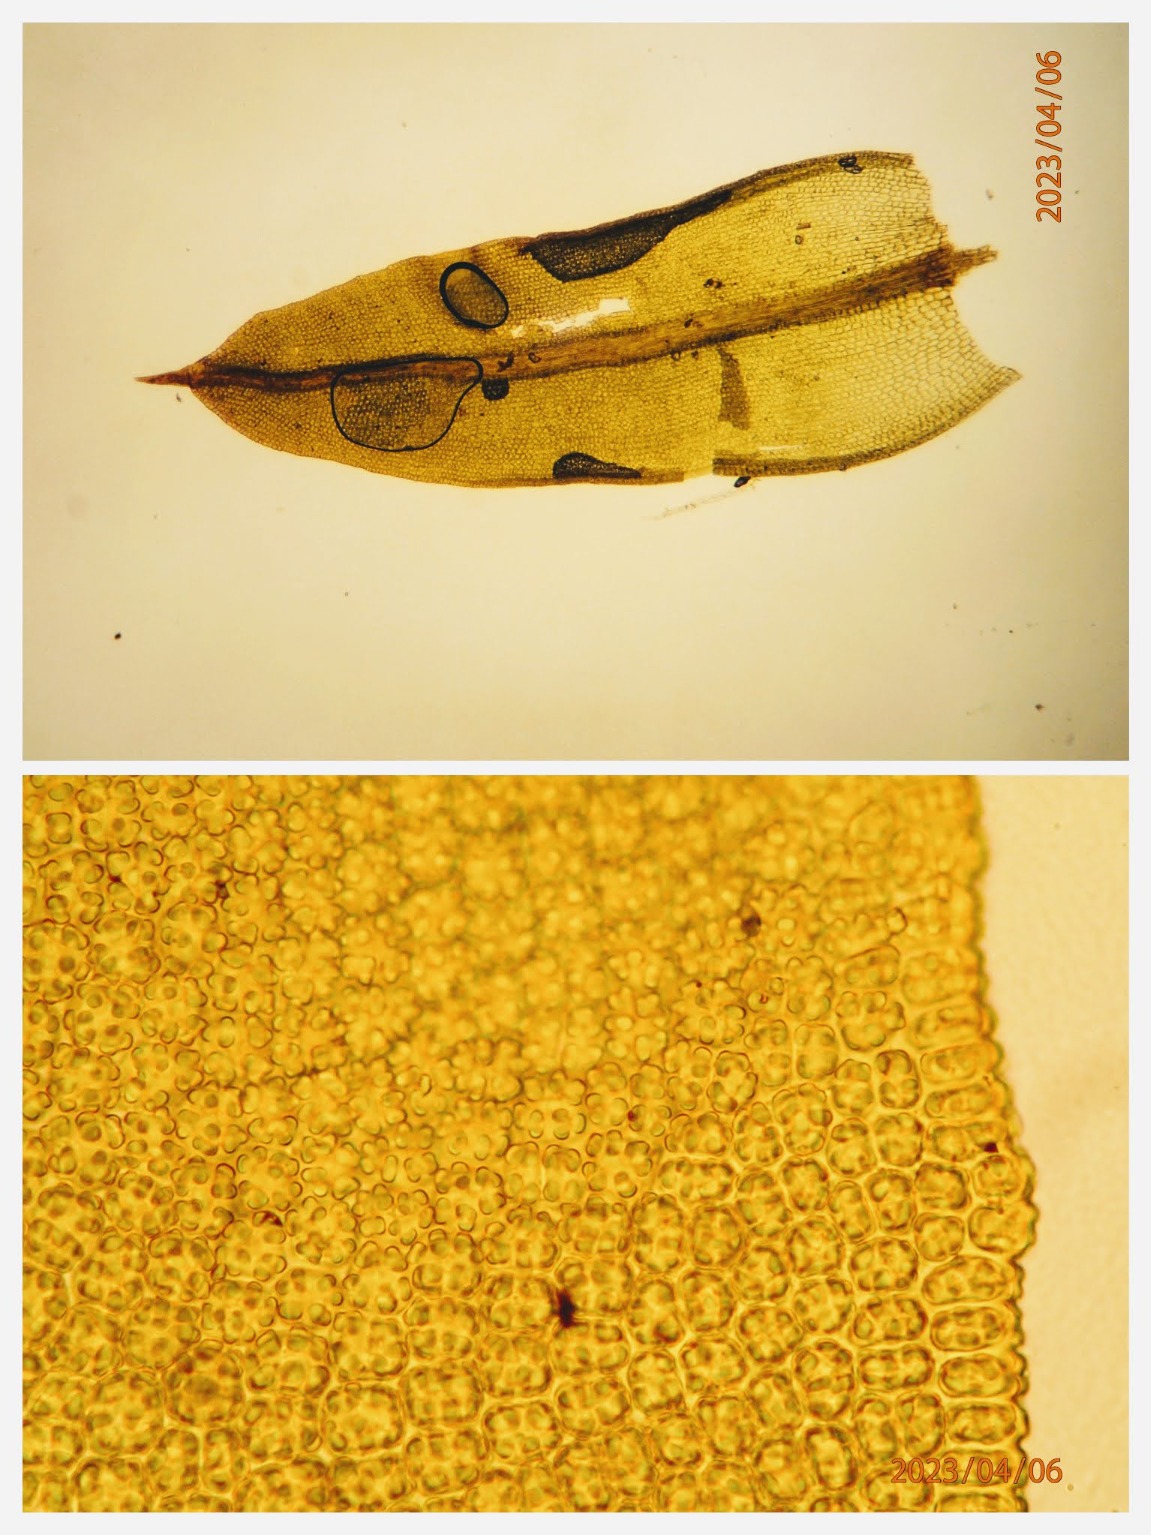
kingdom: Plantae
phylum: Bryophyta
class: Bryopsida
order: Pottiales
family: Pottiaceae
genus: Barbula
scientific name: Barbula unguiculata
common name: Almindelig skægtand
